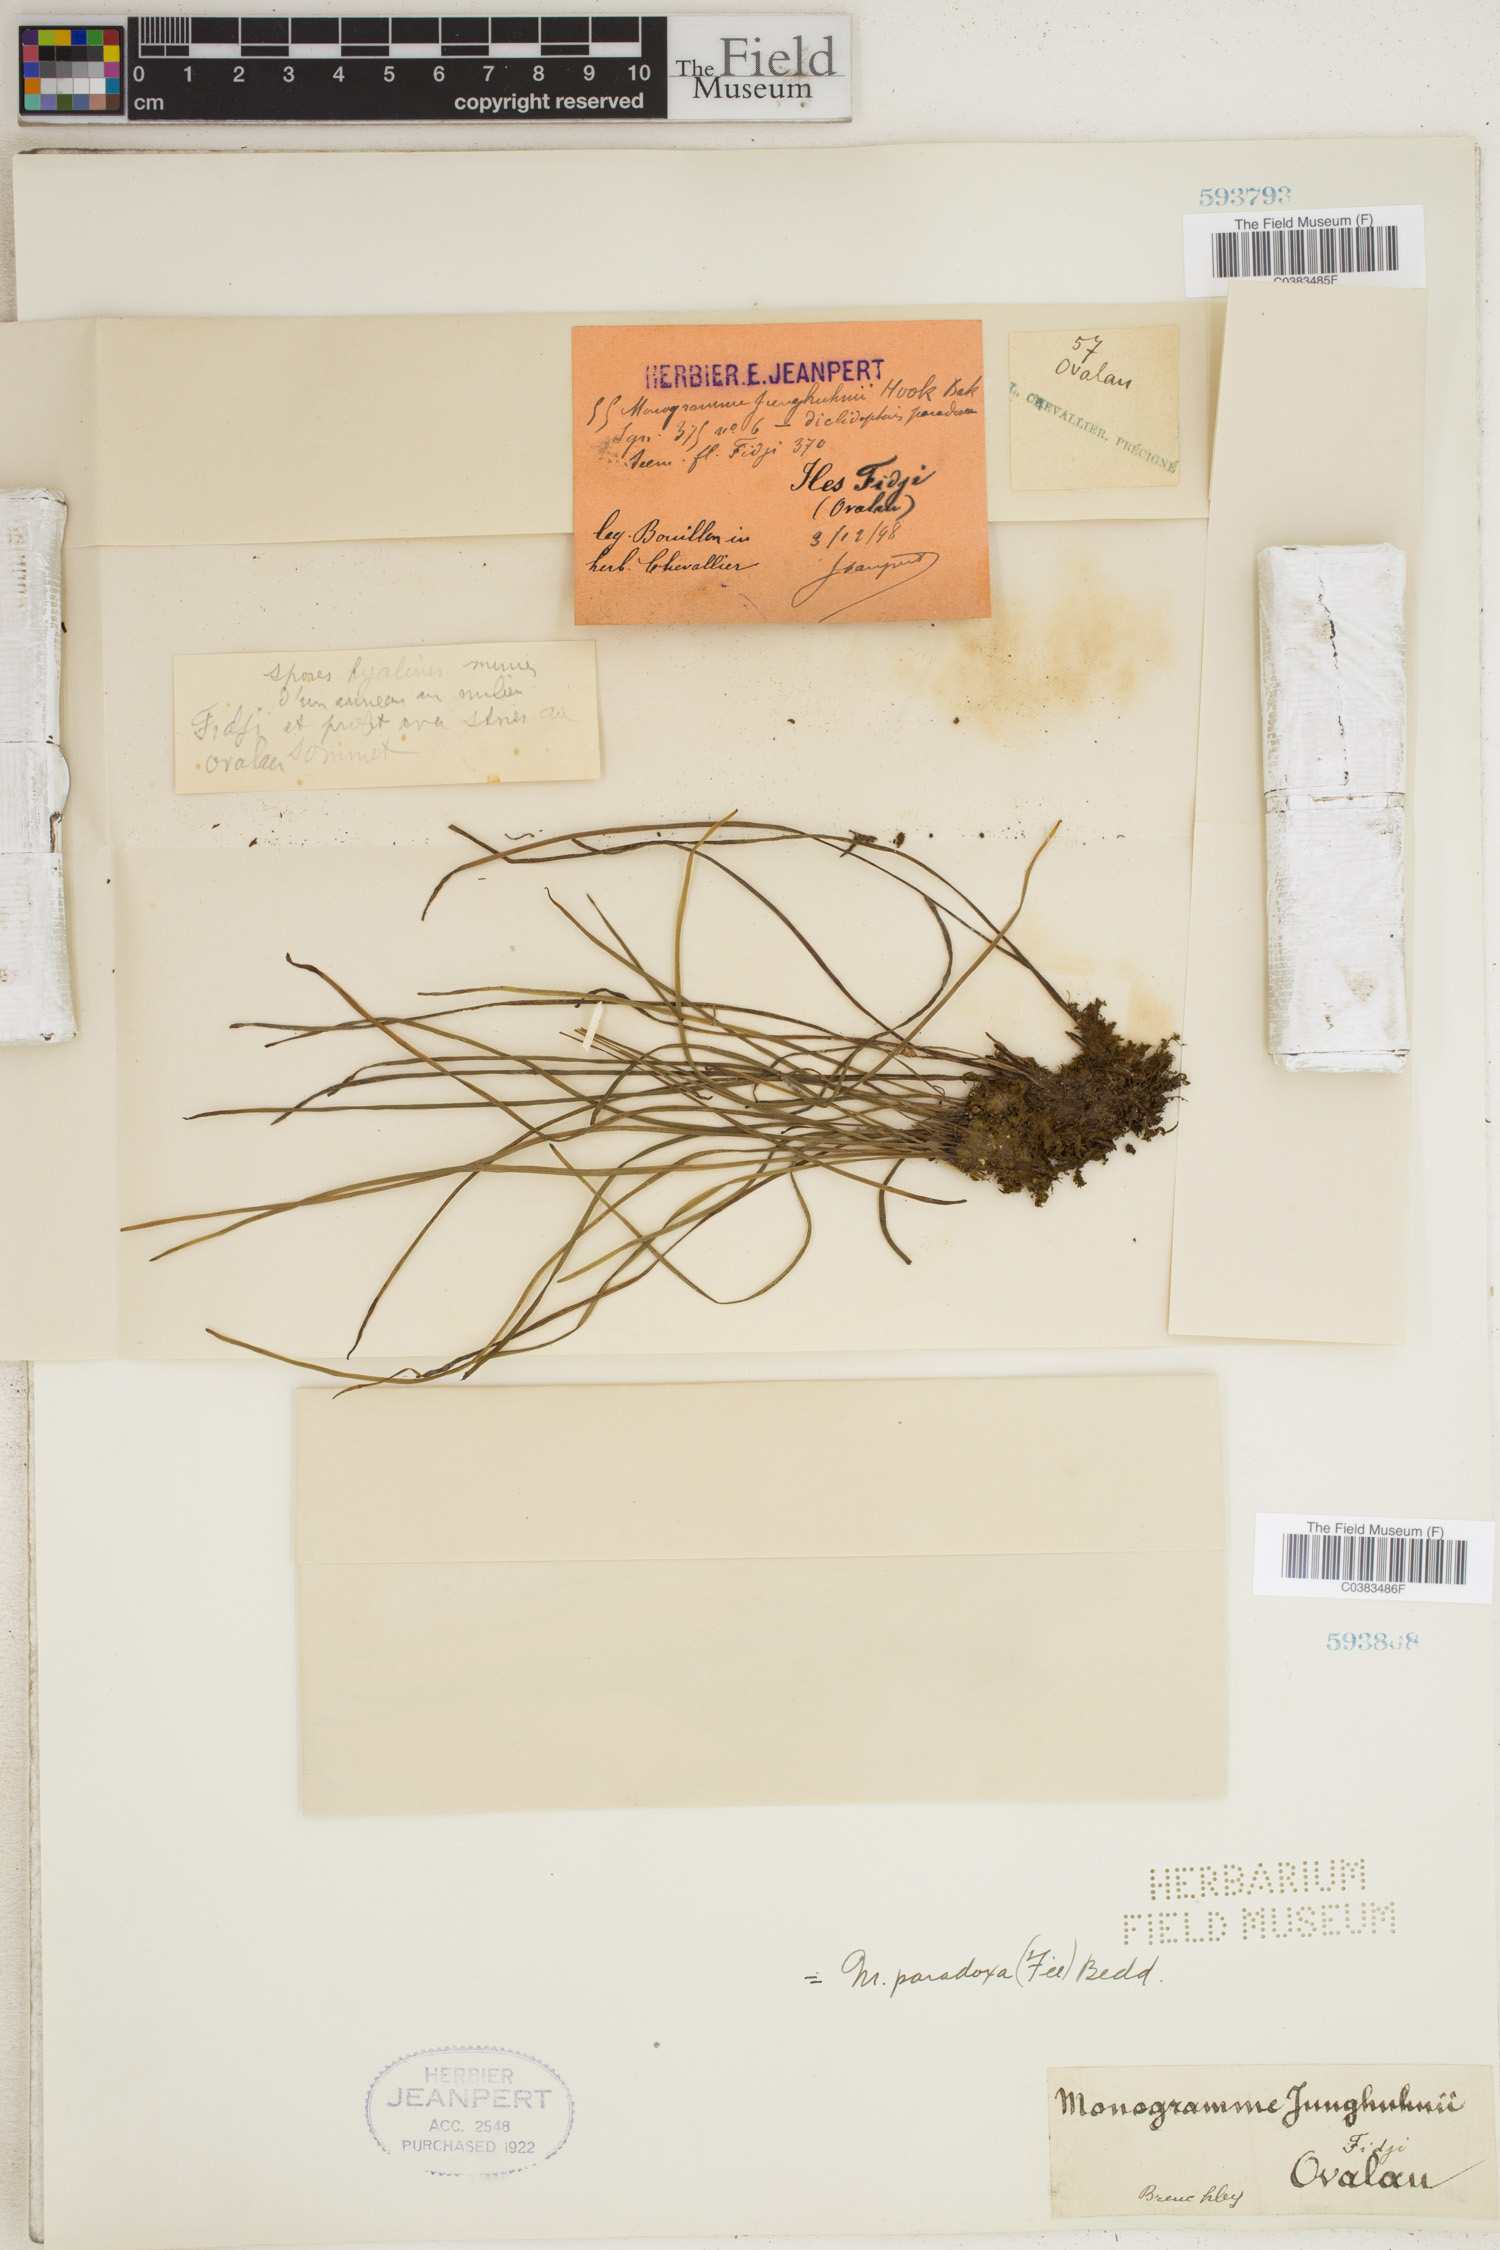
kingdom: Plantae
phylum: Tracheophyta
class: Polypodiopsida
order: Polypodiales
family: Pteridaceae
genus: Vaginularia
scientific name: Vaginularia junghuhnii
